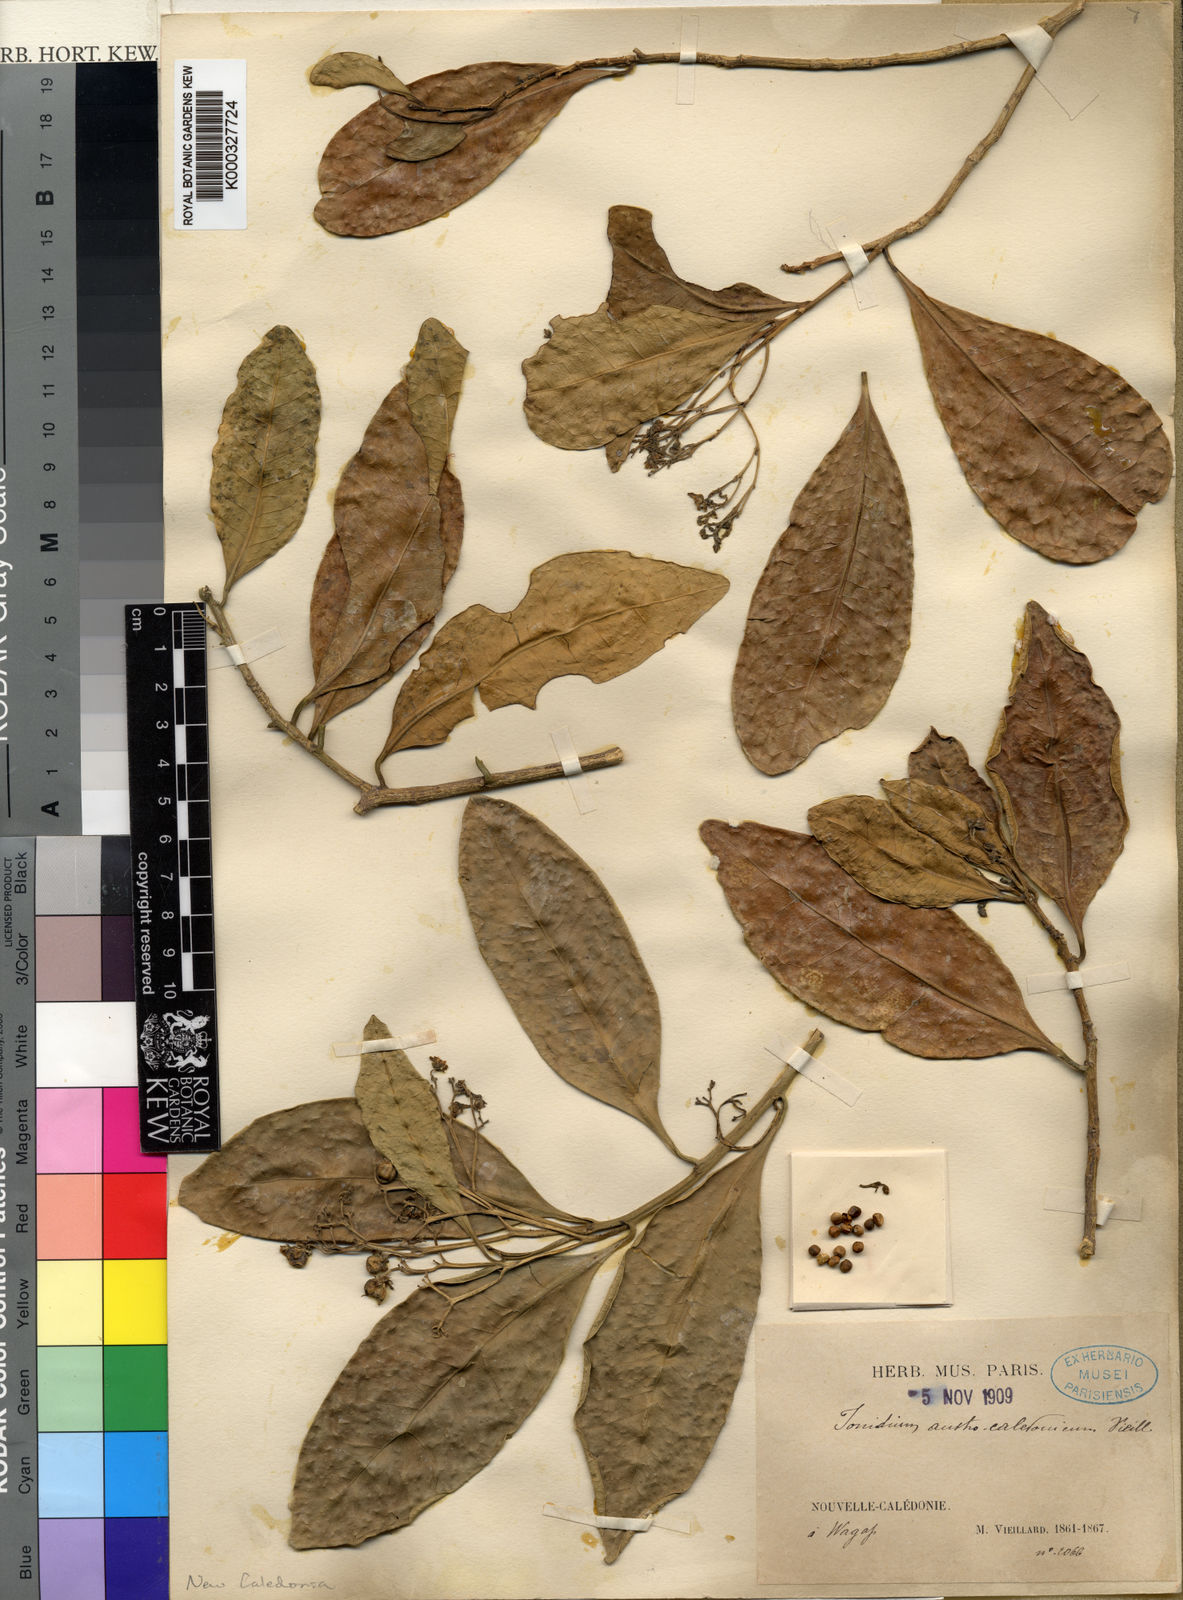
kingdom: Plantae
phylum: Tracheophyta
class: Magnoliopsida
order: Malpighiales
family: Violaceae
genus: Hybanthus
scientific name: Hybanthus austrocaledonicus
